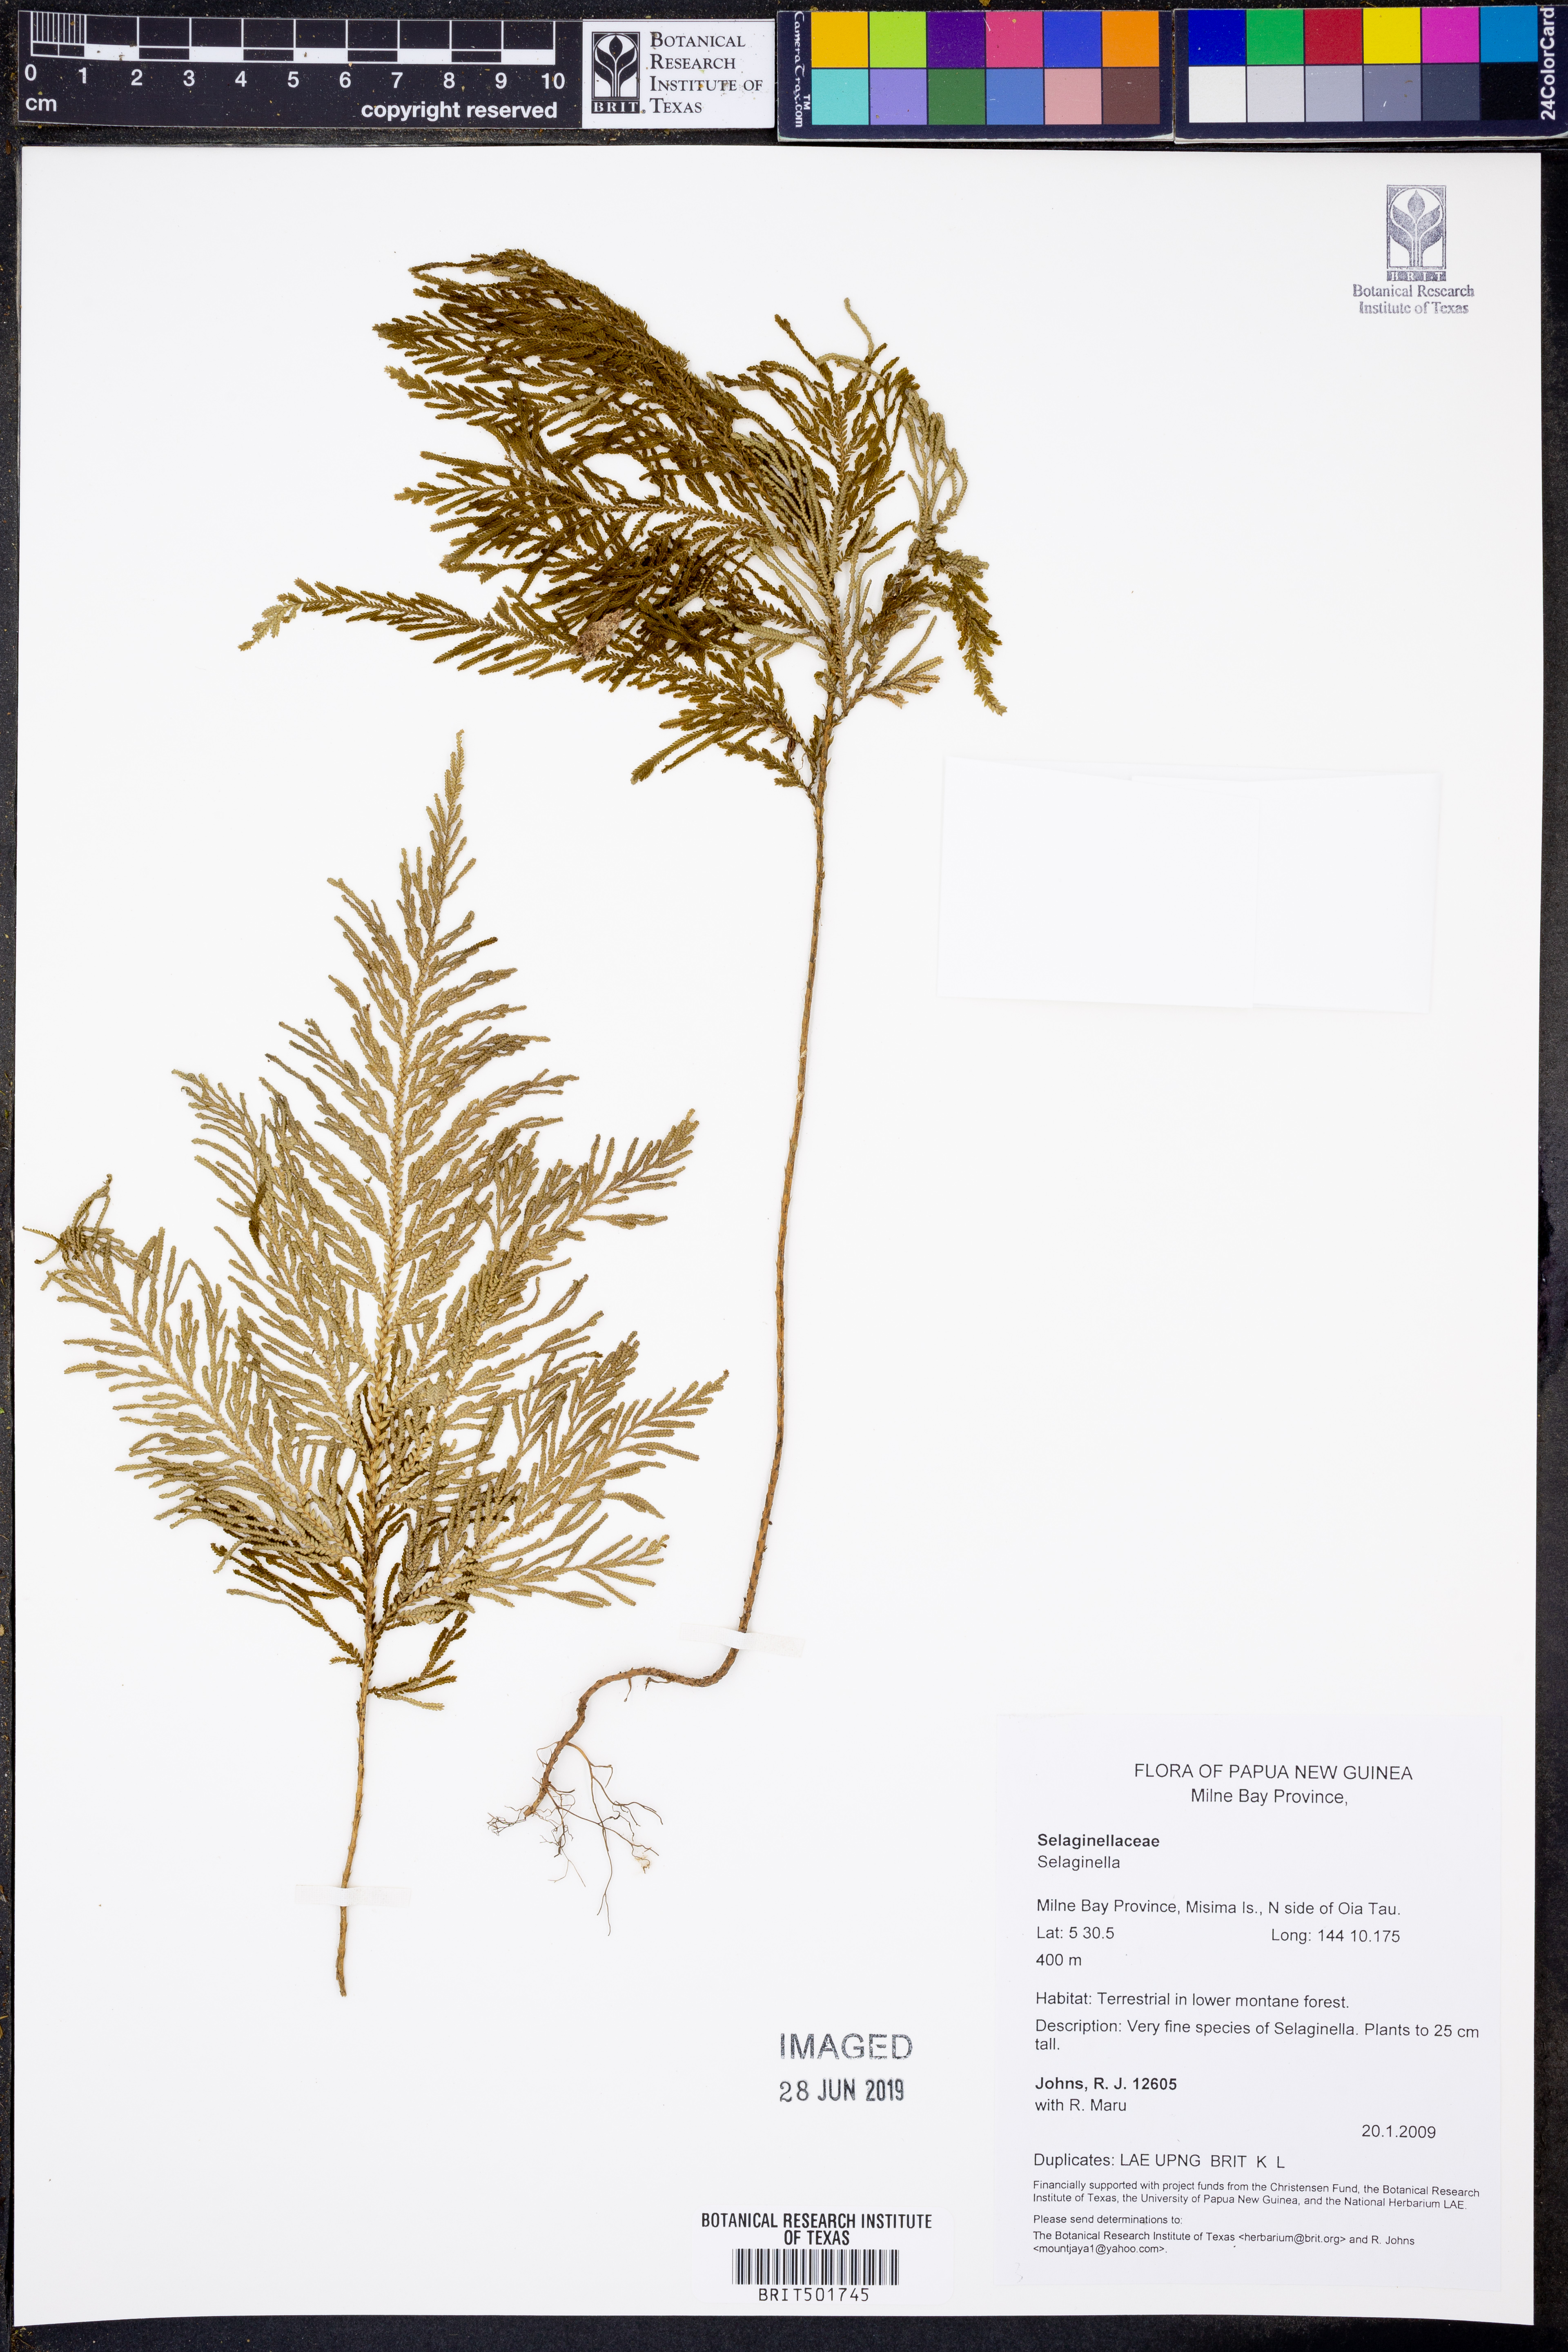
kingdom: Plantae
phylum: Tracheophyta
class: Lycopodiopsida
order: Selaginellales
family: Selaginellaceae
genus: Selaginella
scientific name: Selaginella
